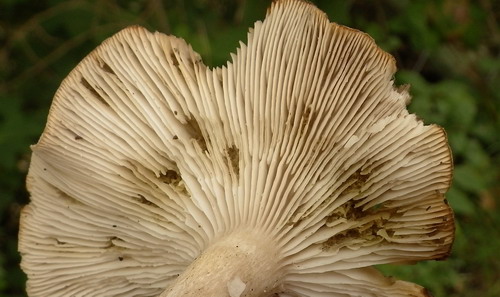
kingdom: Fungi
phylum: Basidiomycota
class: Agaricomycetes
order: Agaricales
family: Tricholomataceae
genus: Tricholoma
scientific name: Tricholoma scalpturatum
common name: gulplettet ridderhat
